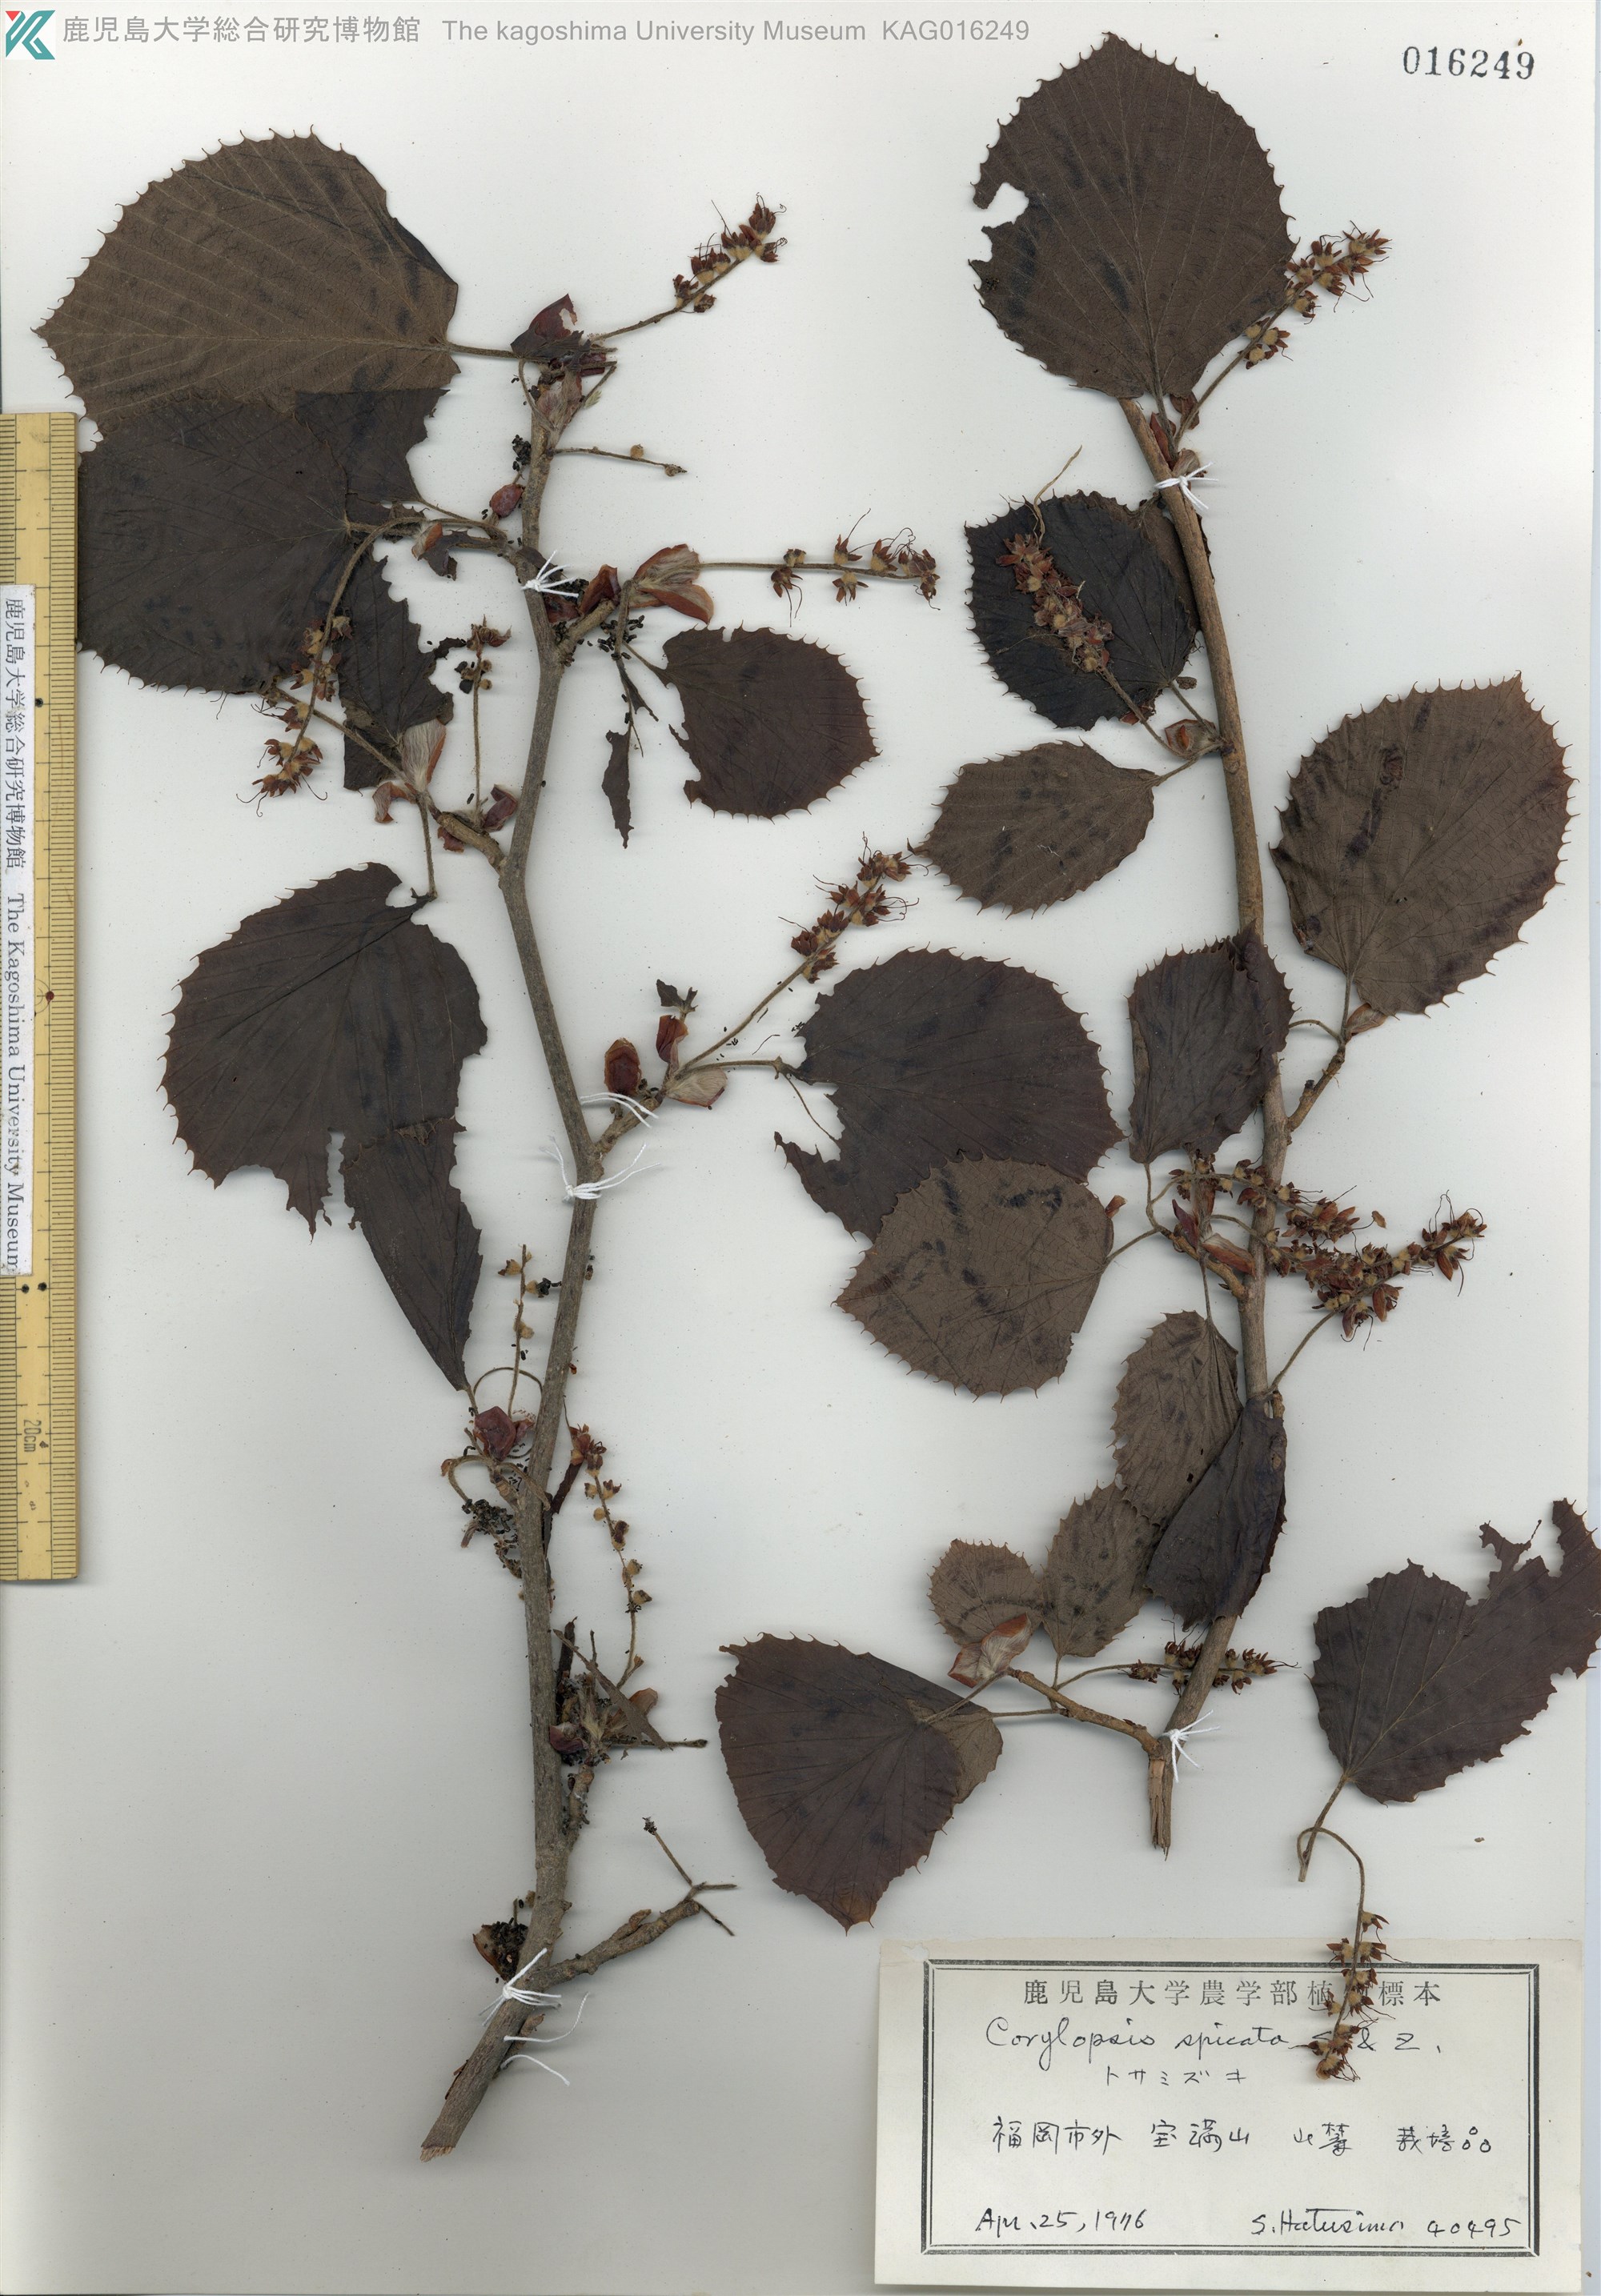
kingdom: Plantae
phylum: Tracheophyta
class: Magnoliopsida
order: Saxifragales
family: Hamamelidaceae
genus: Corylopsis
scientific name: Corylopsis spicata
